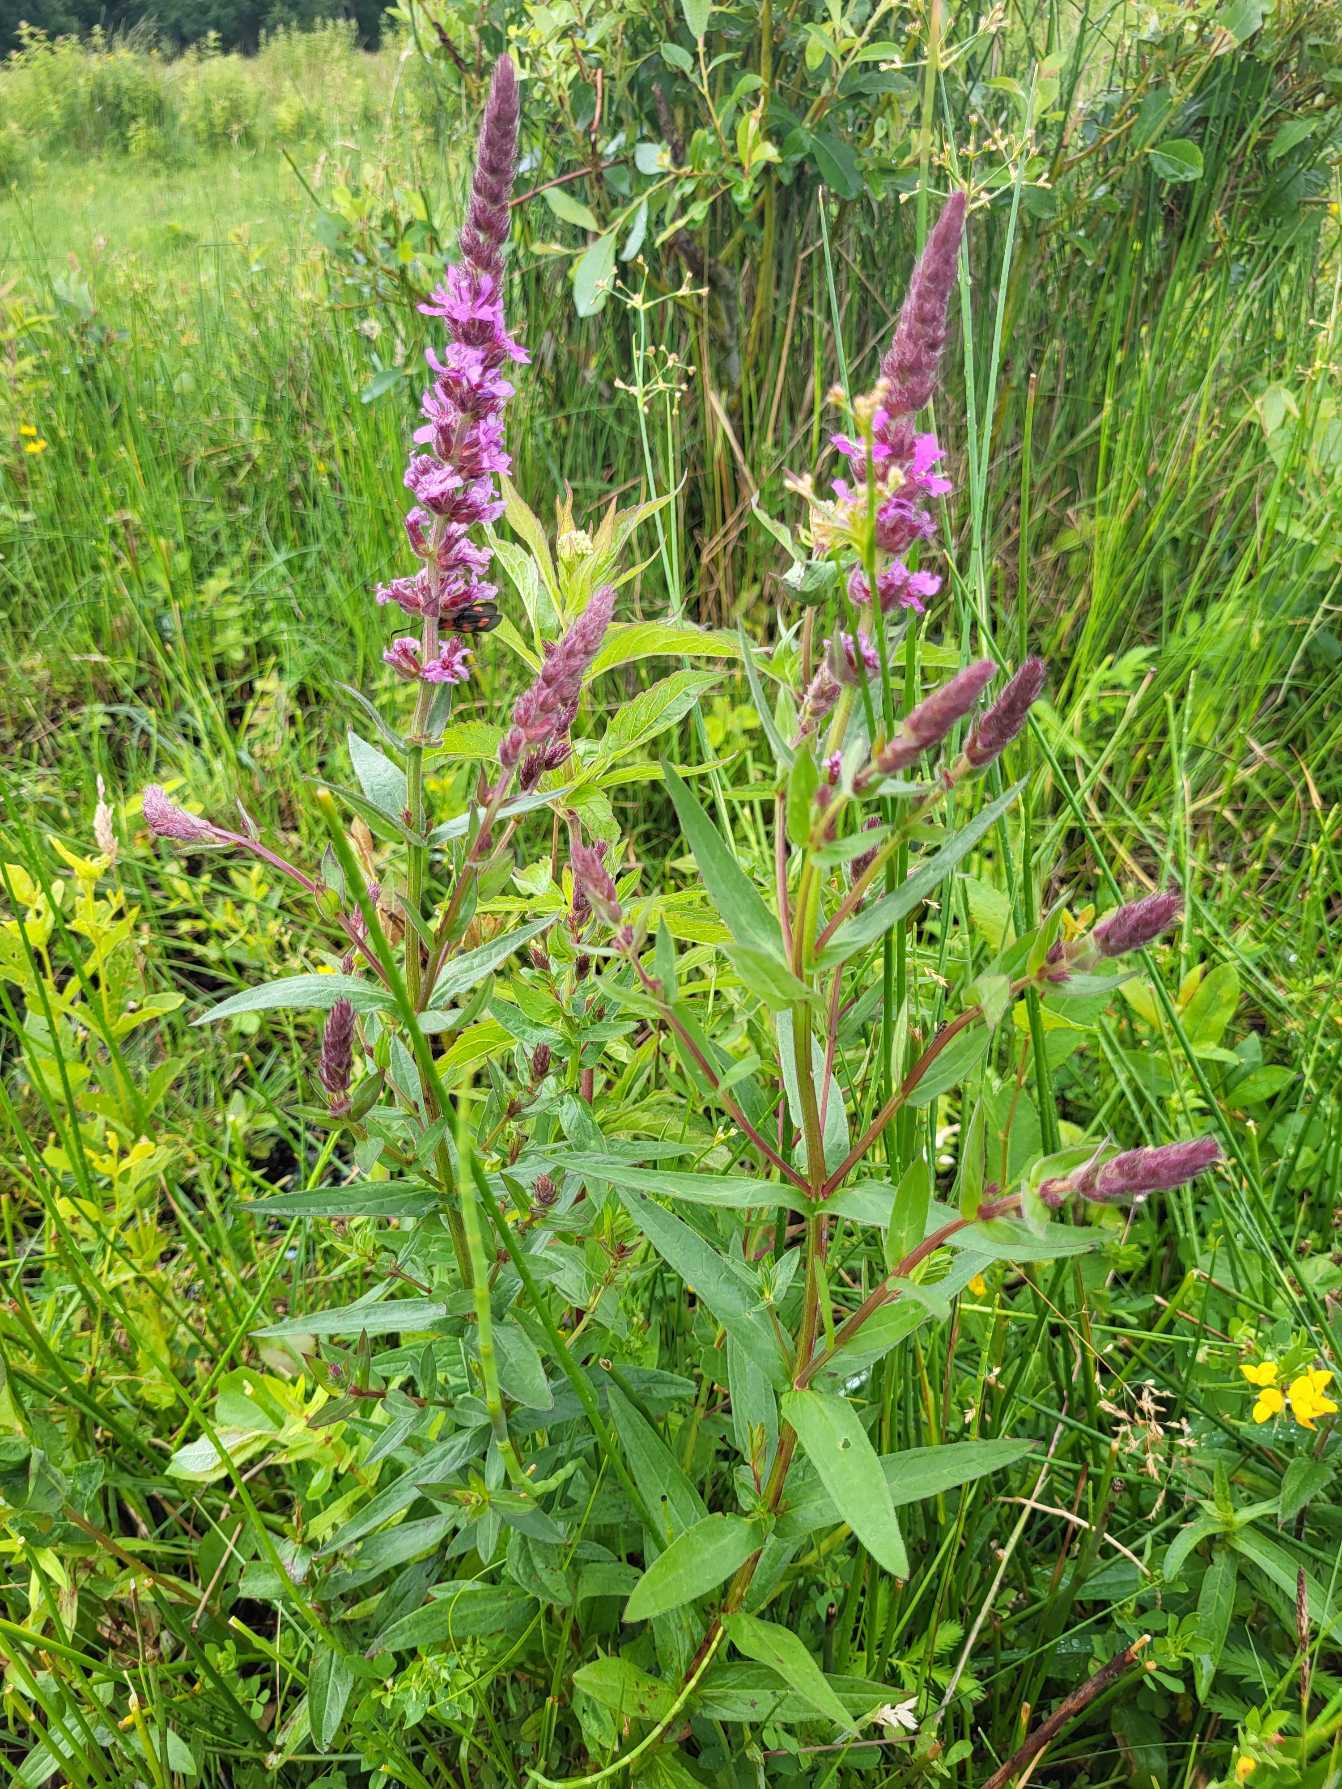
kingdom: Plantae
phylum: Tracheophyta
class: Magnoliopsida
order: Myrtales
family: Lythraceae
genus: Lythrum
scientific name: Lythrum salicaria
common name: Kattehale
